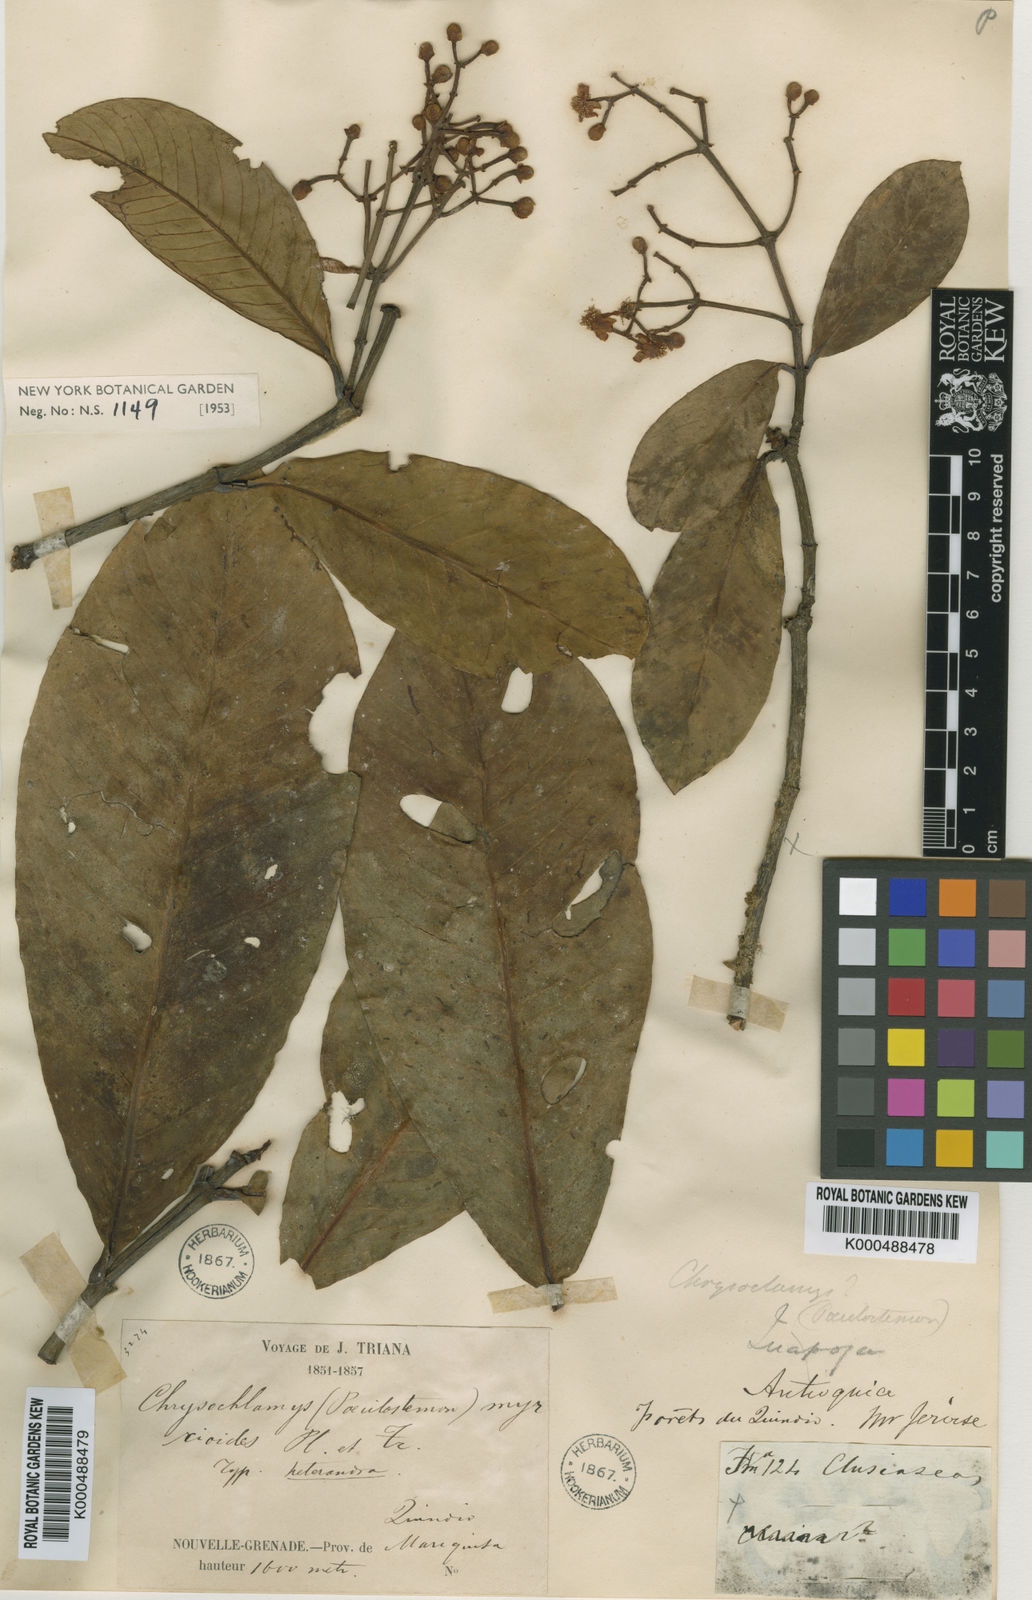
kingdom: Plantae
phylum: Tracheophyta
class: Magnoliopsida
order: Malpighiales
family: Clusiaceae
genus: Chrysochlamys
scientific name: Chrysochlamys myrcioides
